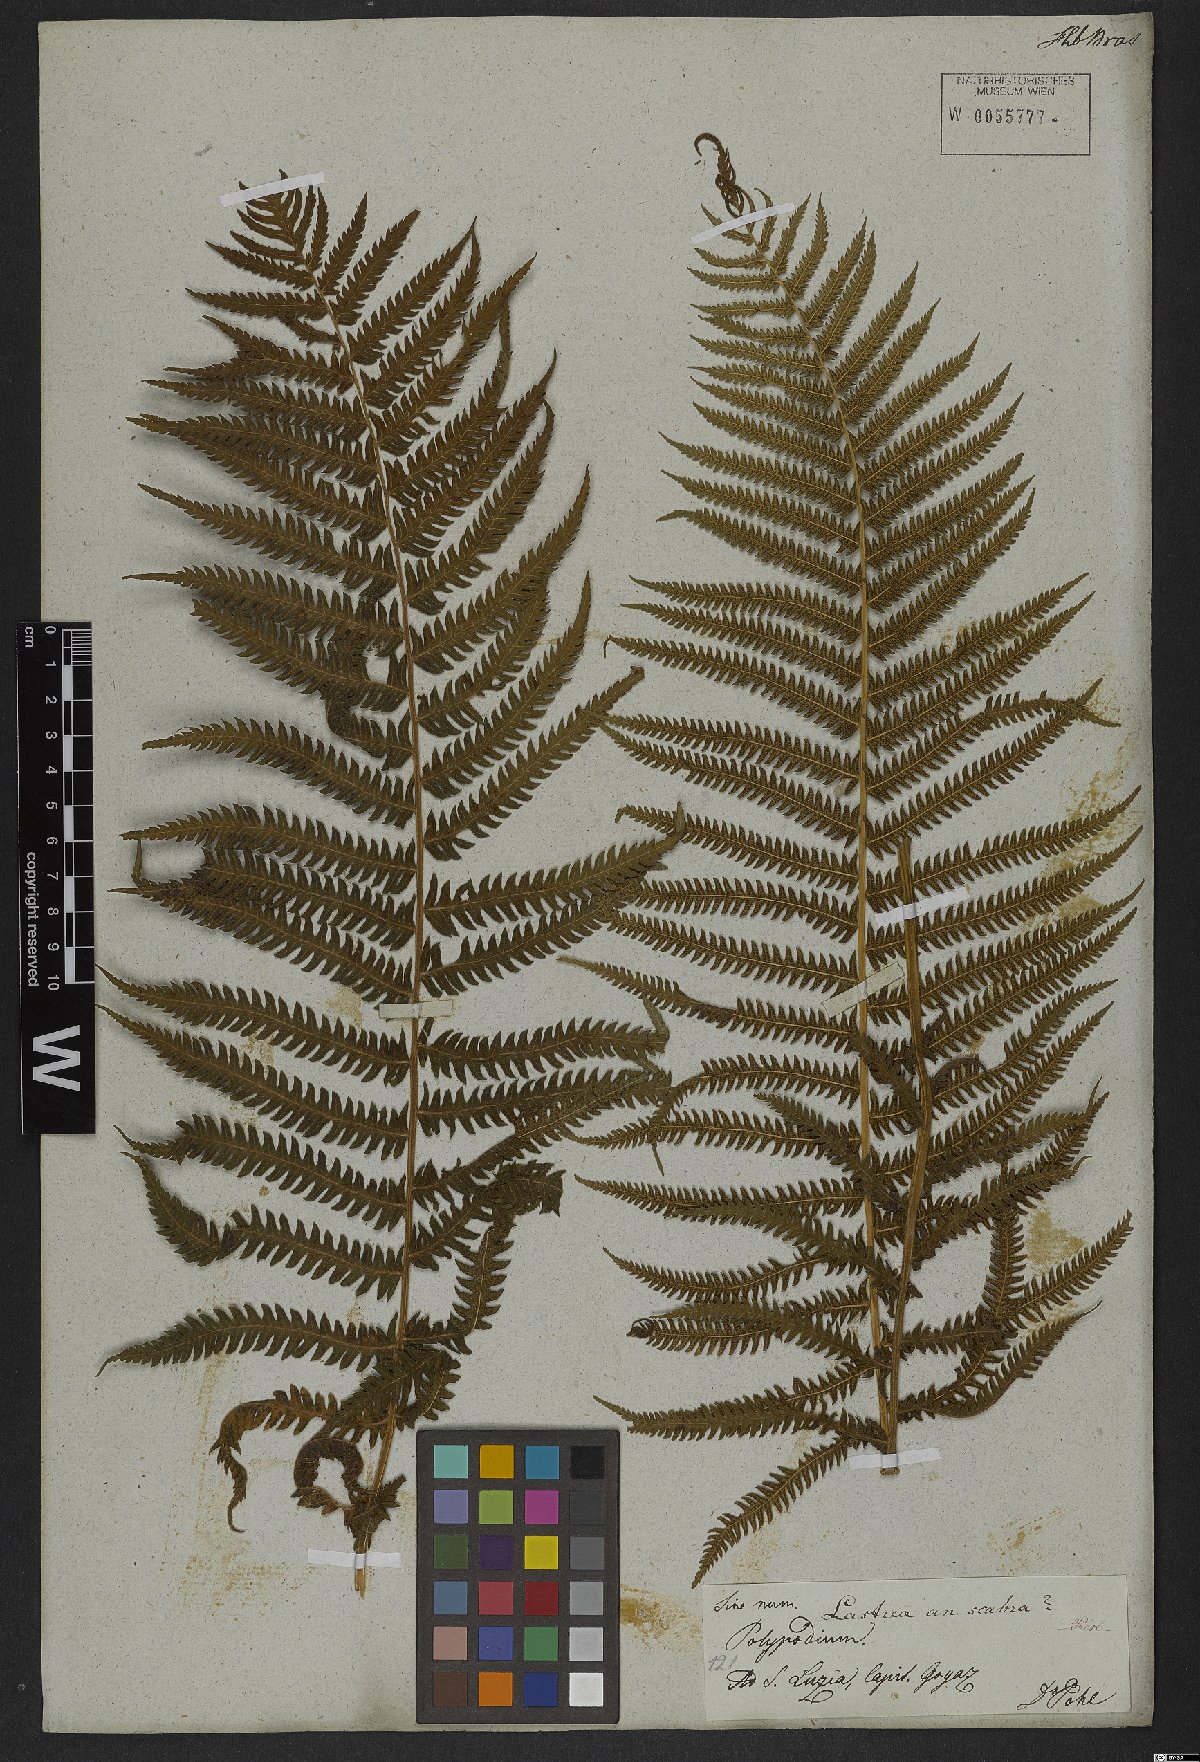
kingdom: Plantae
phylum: Tracheophyta
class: Polypodiopsida
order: Polypodiales
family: Thelypteridaceae
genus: Goniopteris
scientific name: Goniopteris scabra
